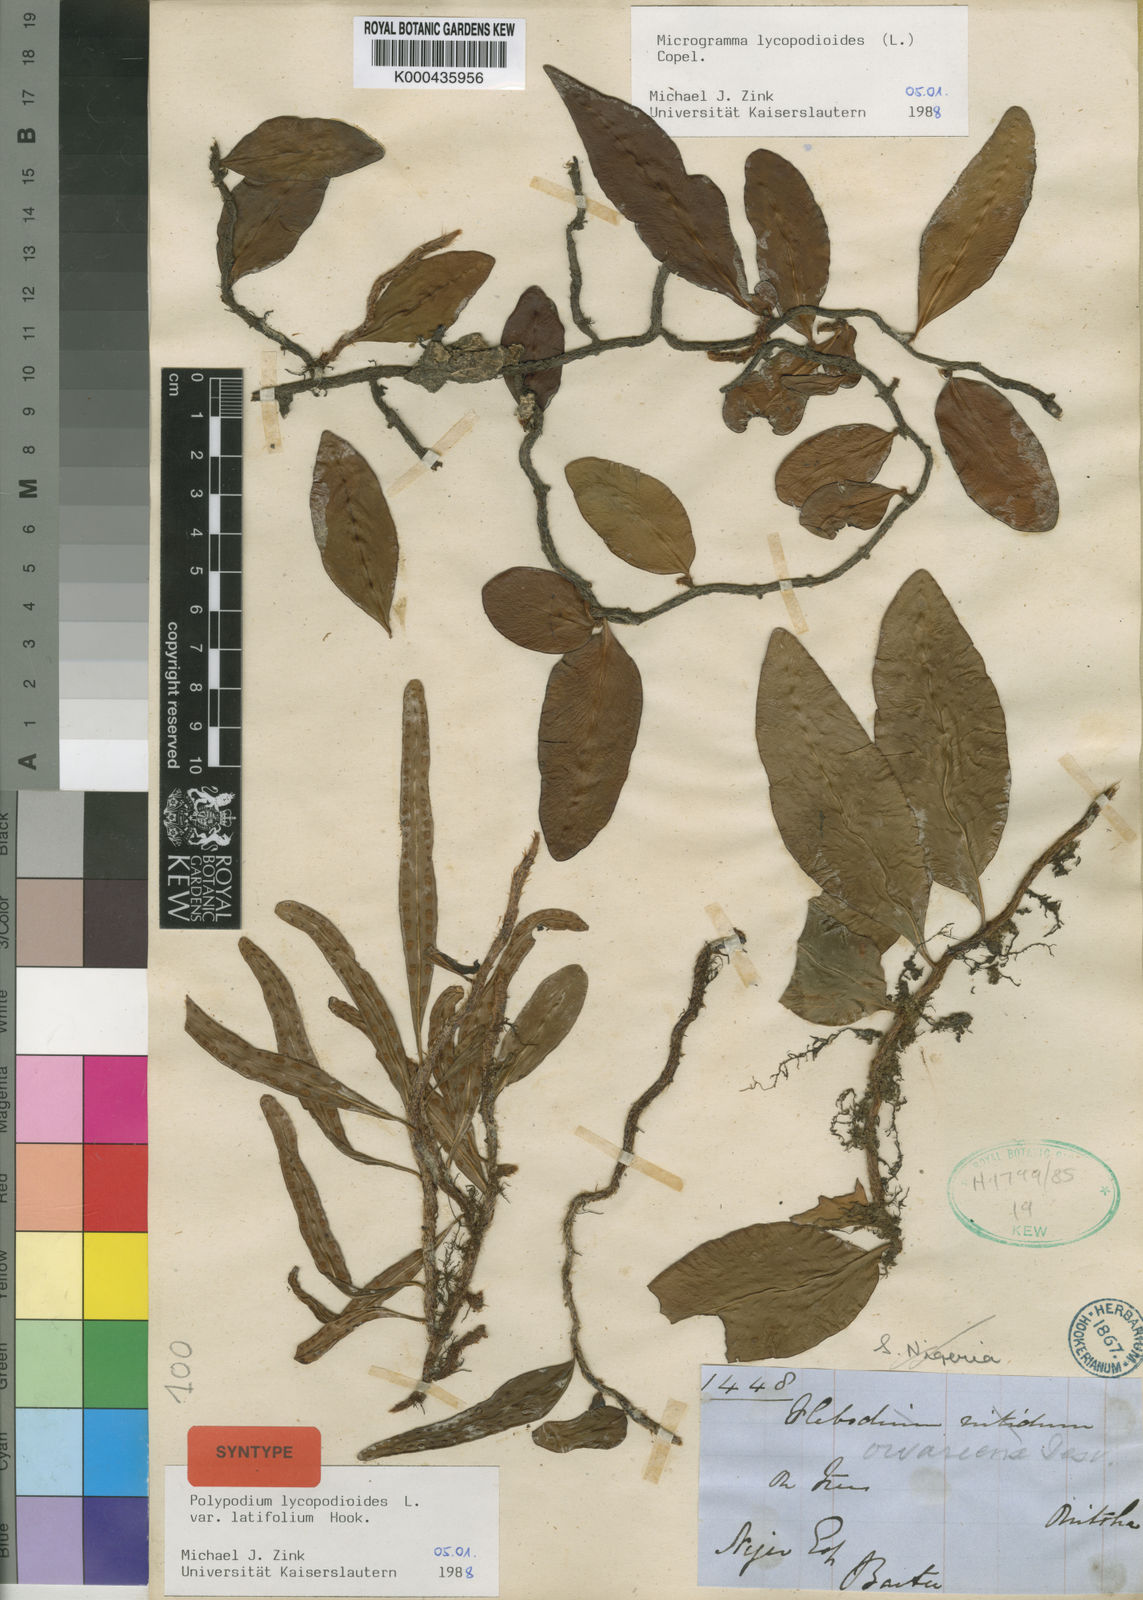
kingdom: Plantae
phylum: Tracheophyta
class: Polypodiopsida
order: Polypodiales
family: Polypodiaceae
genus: Microgramma
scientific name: Microgramma lycopodioides
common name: Bastard catclaw
